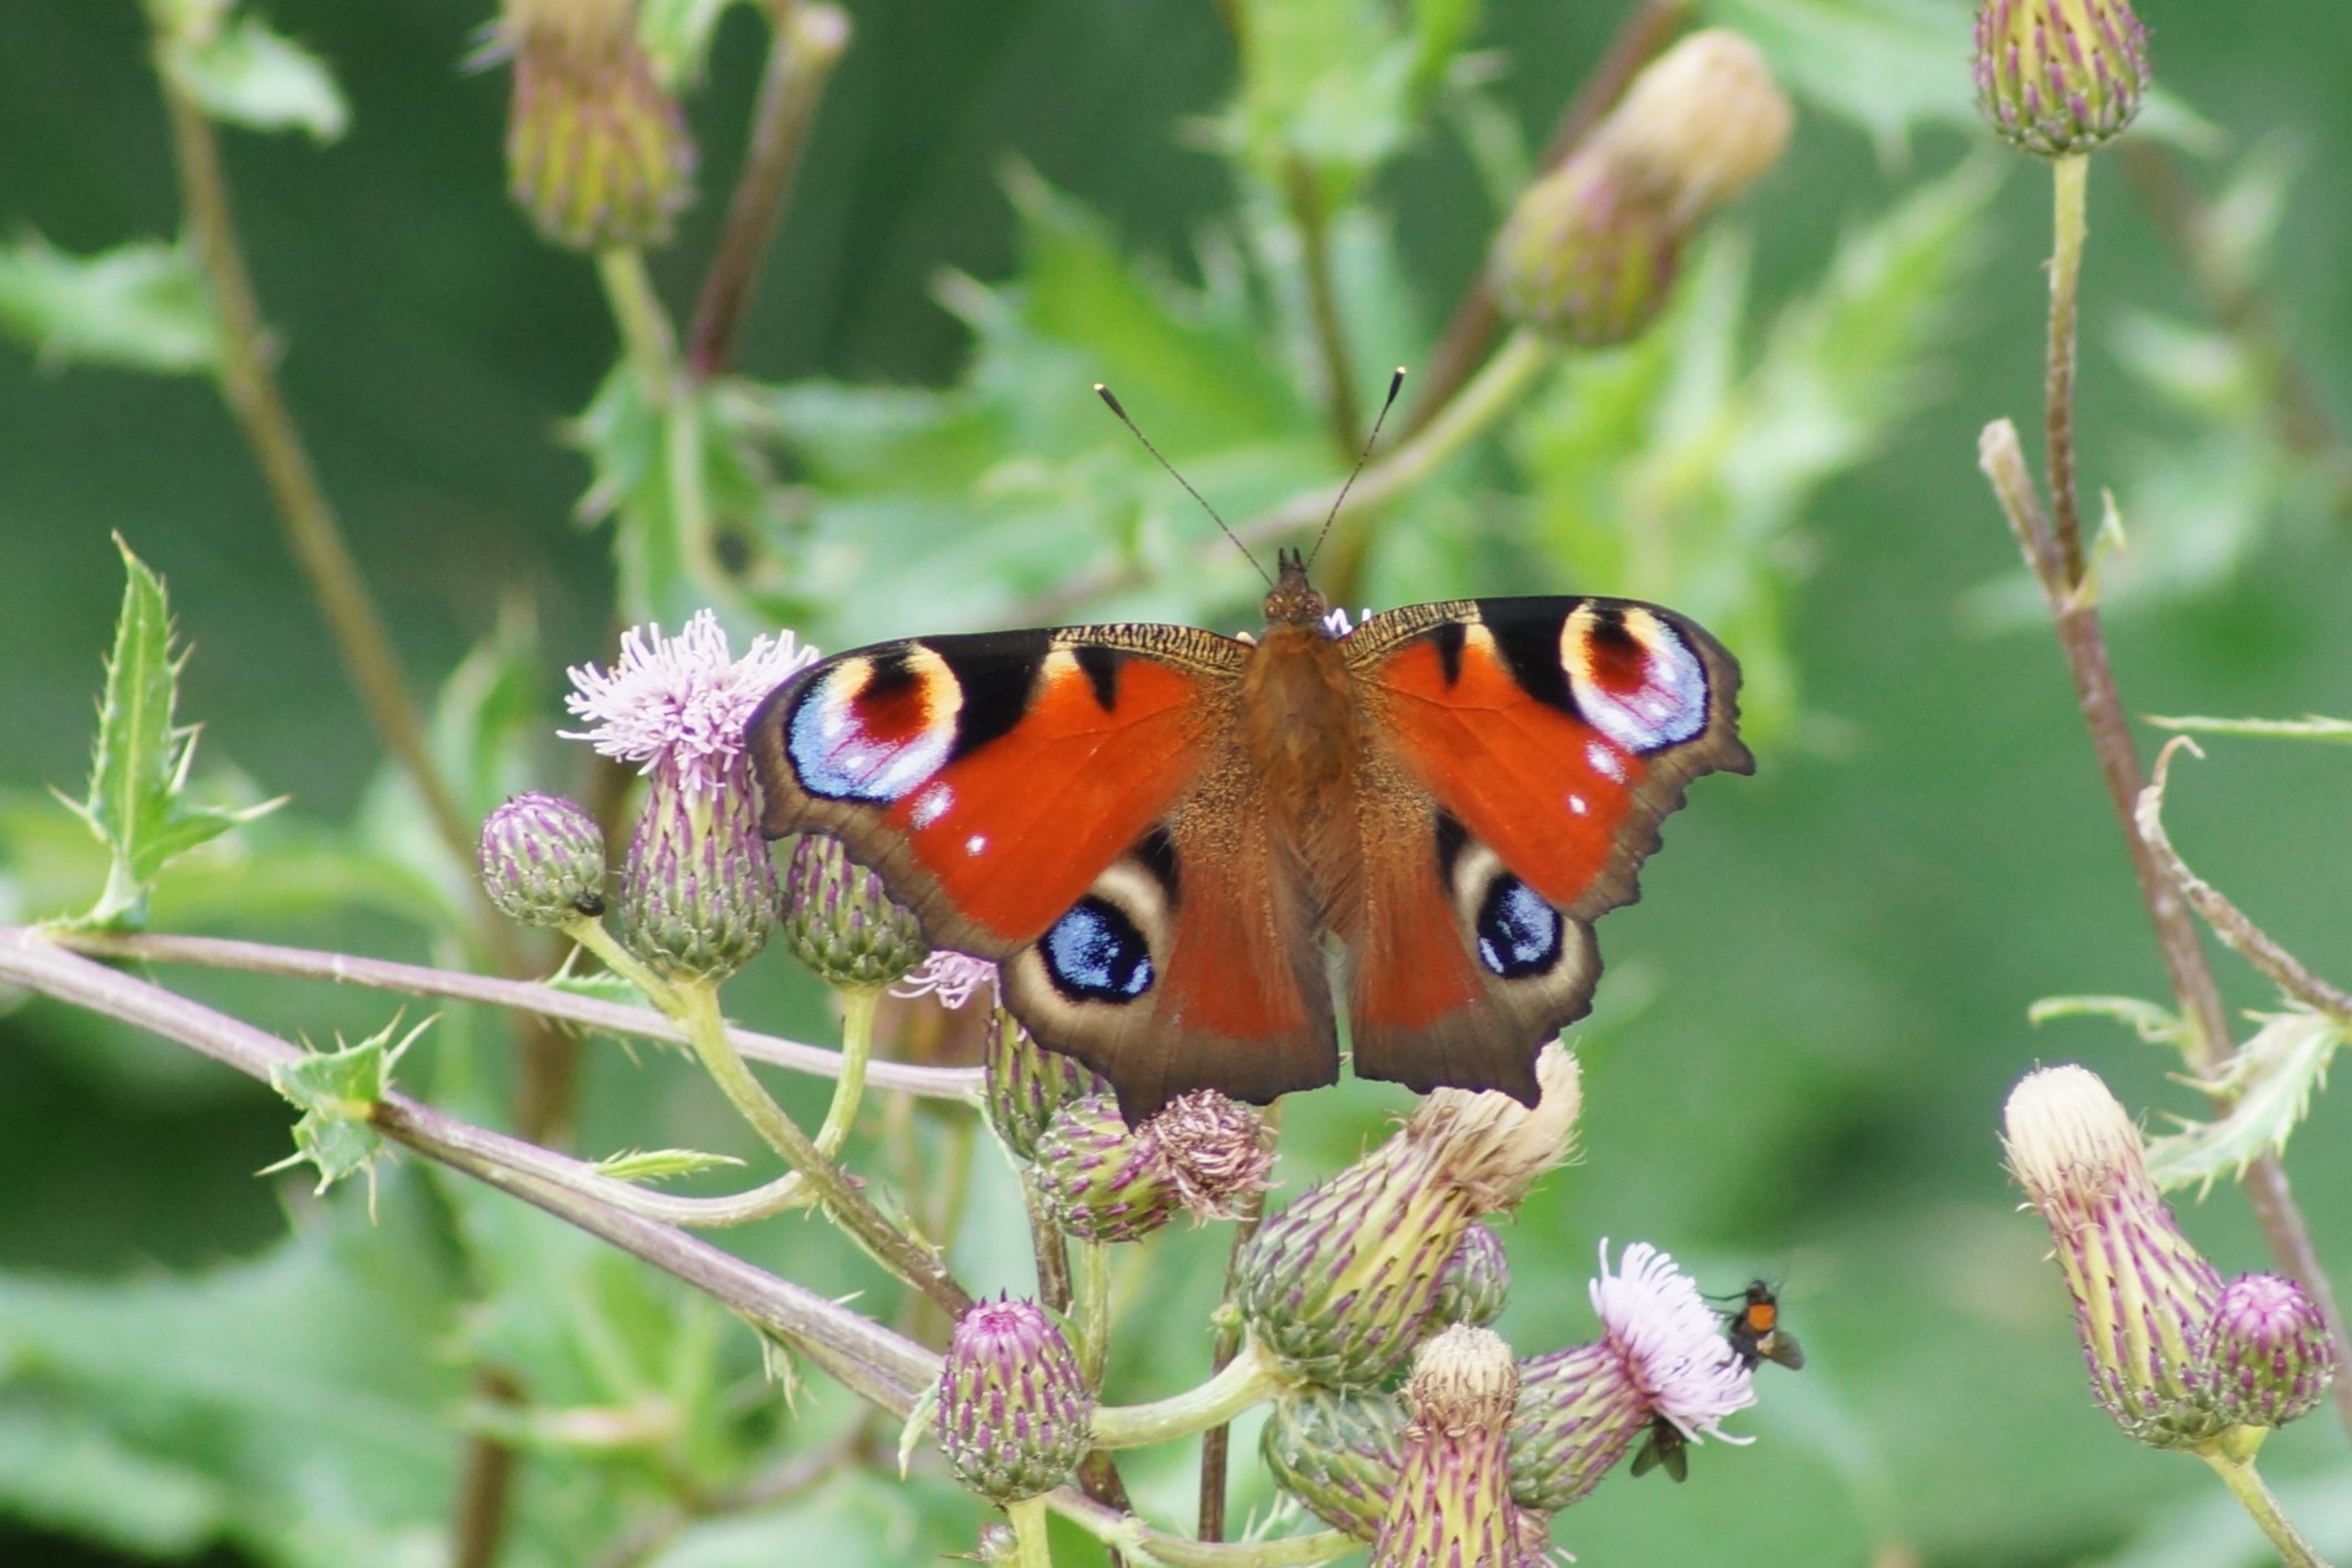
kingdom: Animalia
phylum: Arthropoda
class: Insecta
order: Lepidoptera
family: Nymphalidae
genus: Aglais
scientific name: Aglais io
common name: Dagpåfugleøje
